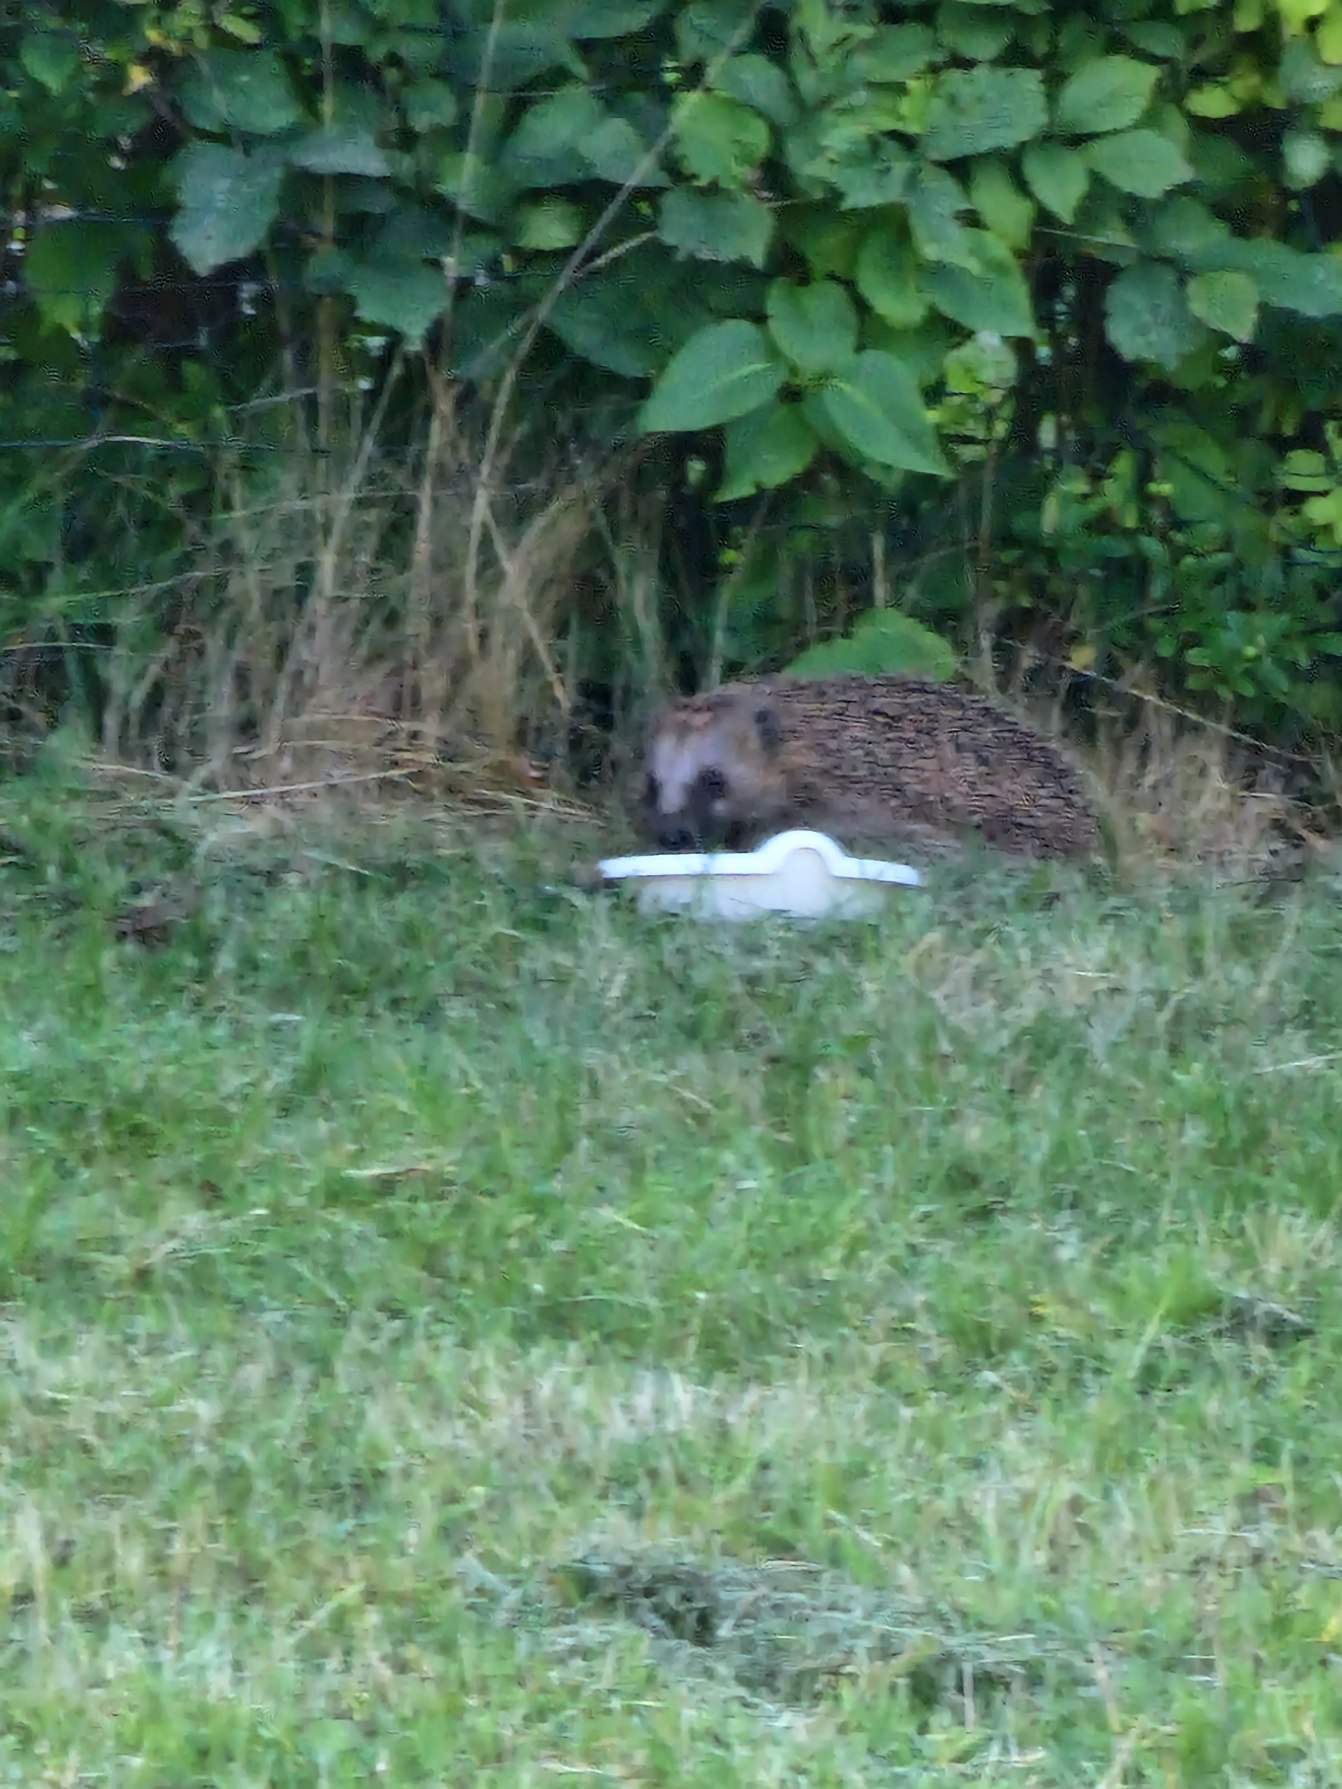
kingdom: Animalia
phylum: Chordata
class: Mammalia
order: Erinaceomorpha
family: Erinaceidae
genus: Erinaceus
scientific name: Erinaceus europaeus
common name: Pindsvin
